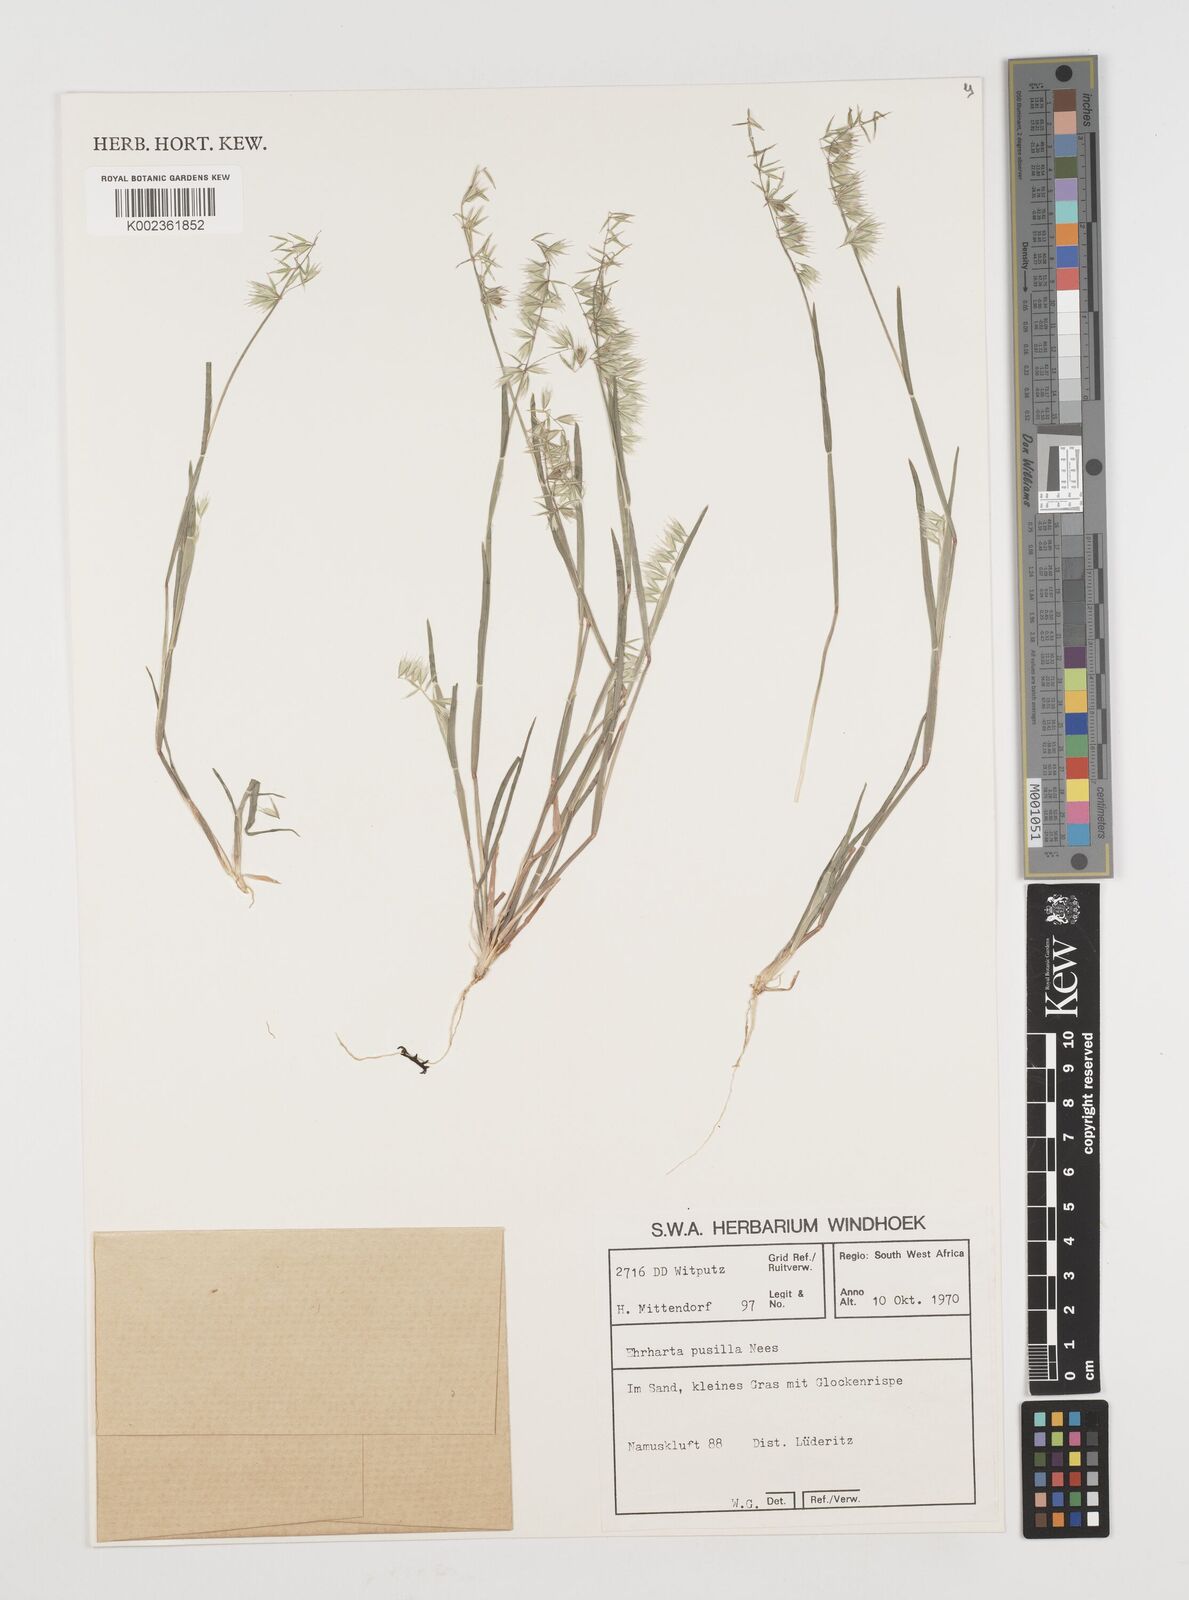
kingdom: Plantae
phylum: Tracheophyta
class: Liliopsida
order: Poales
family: Poaceae
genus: Ehrharta
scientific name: Ehrharta pusilla
